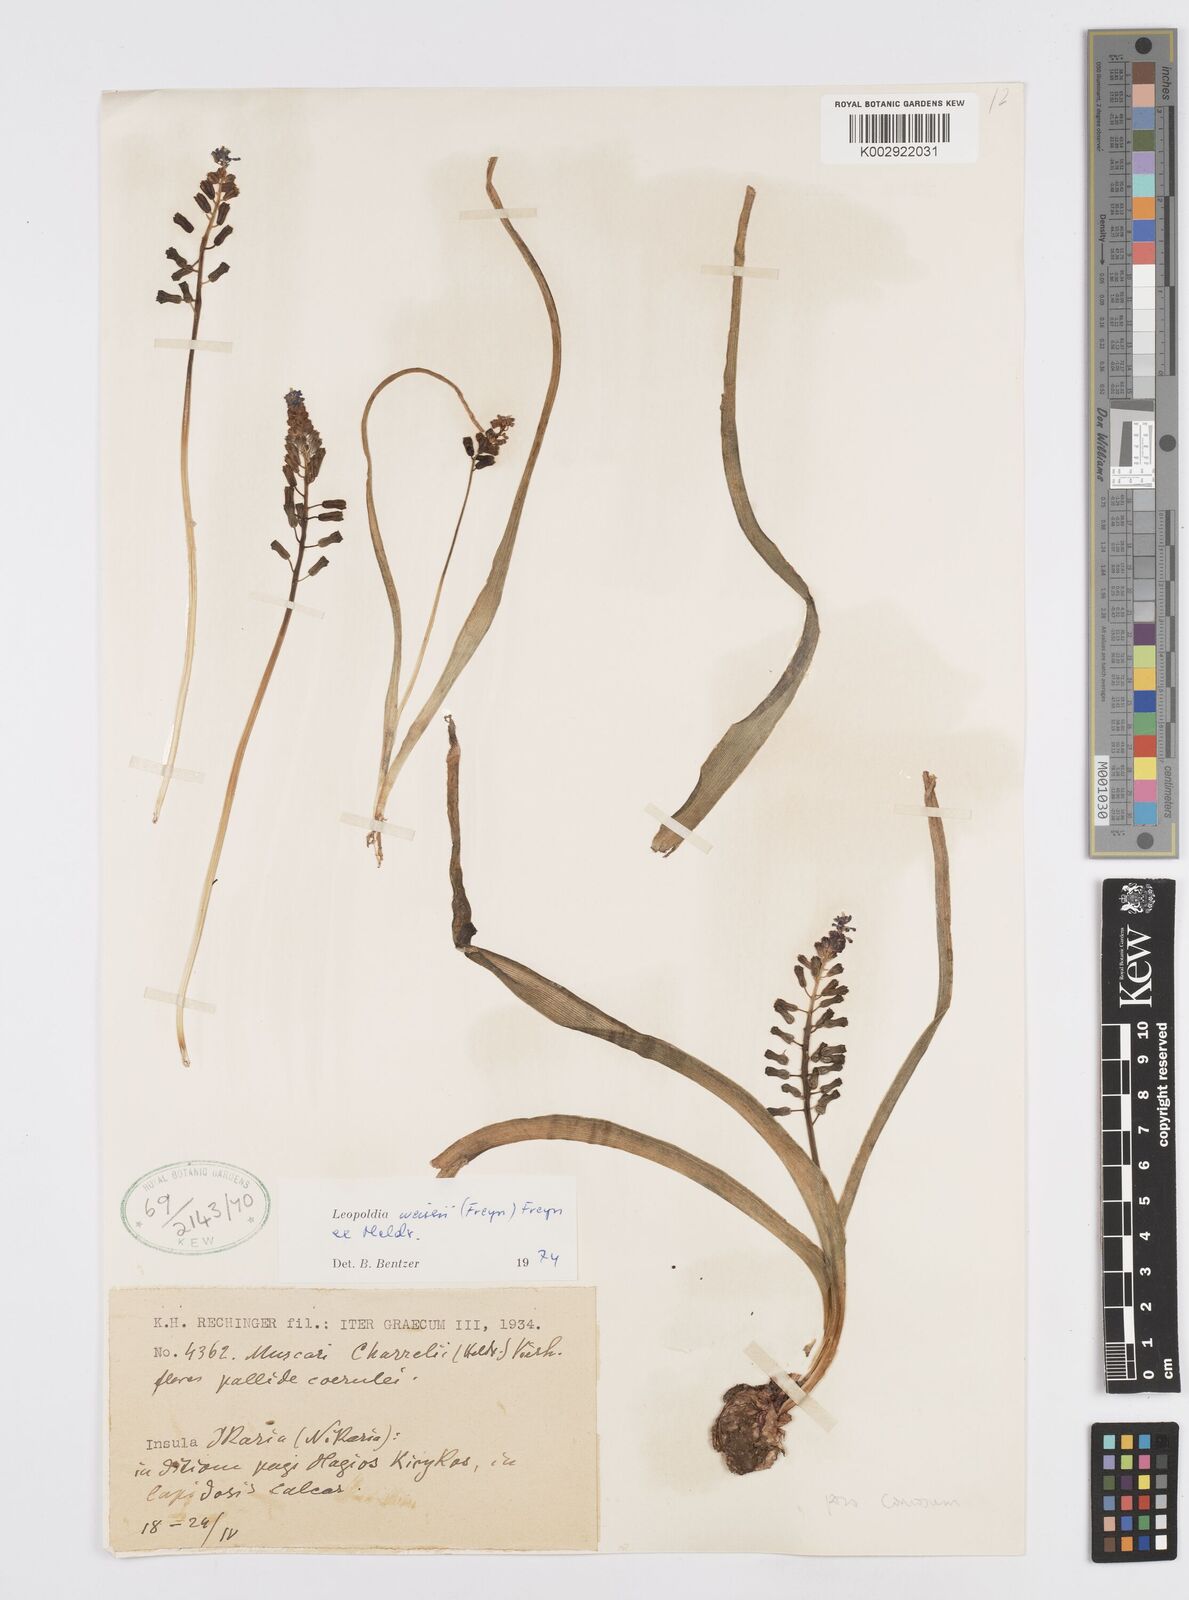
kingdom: Plantae
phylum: Tracheophyta
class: Liliopsida
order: Asparagales
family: Asparagaceae
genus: Muscari
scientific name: Muscari weissii
